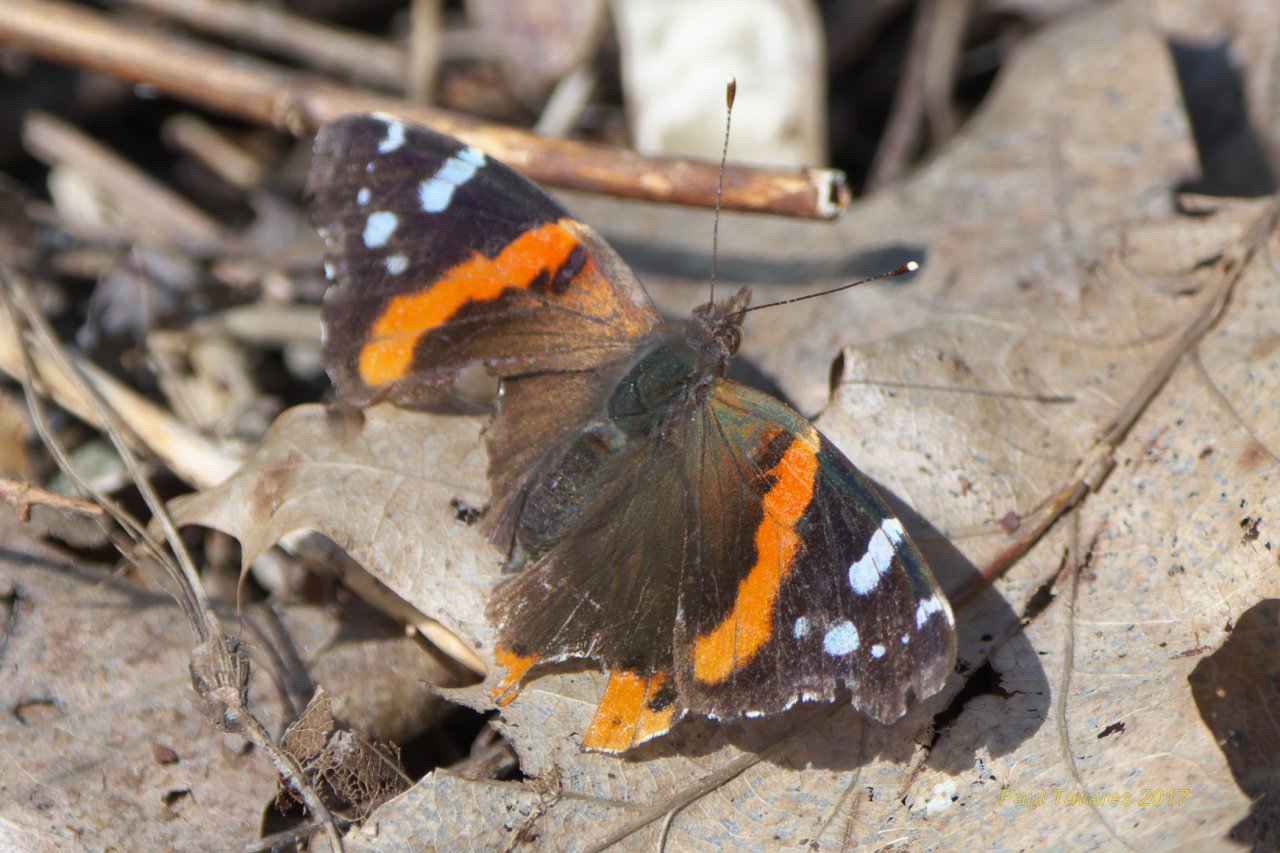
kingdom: Animalia
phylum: Arthropoda
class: Insecta
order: Lepidoptera
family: Nymphalidae
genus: Vanessa
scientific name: Vanessa atalanta
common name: Red Admiral
